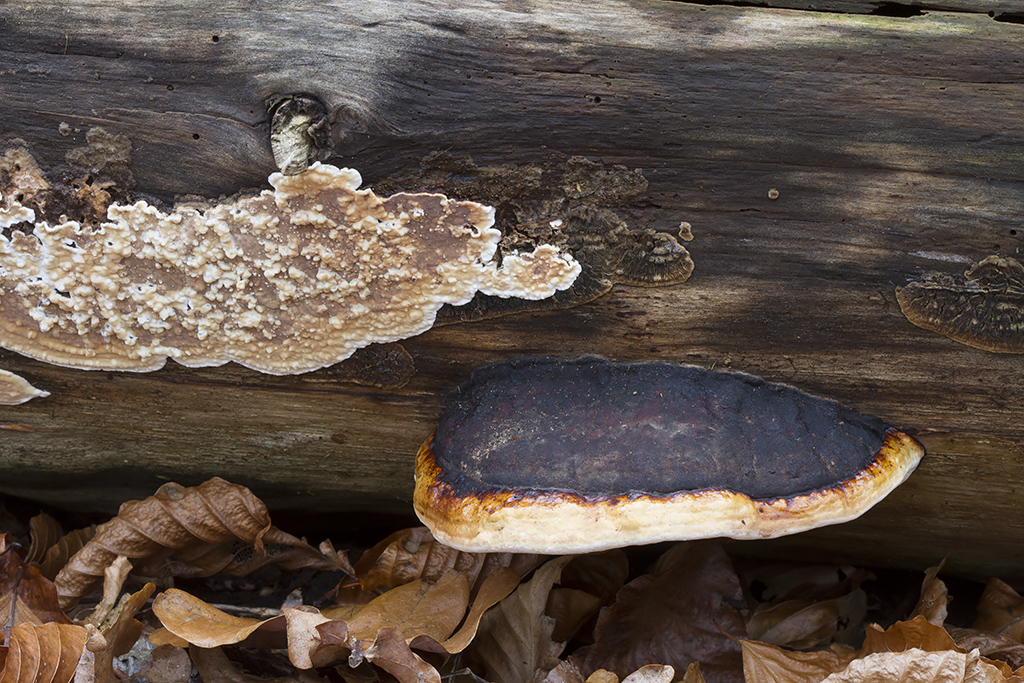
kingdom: Fungi
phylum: Basidiomycota
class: Agaricomycetes
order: Polyporales
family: Dacryobolaceae
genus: Dacryobolus
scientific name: Dacryobolus karstenii
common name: glat vulkanskorpe
